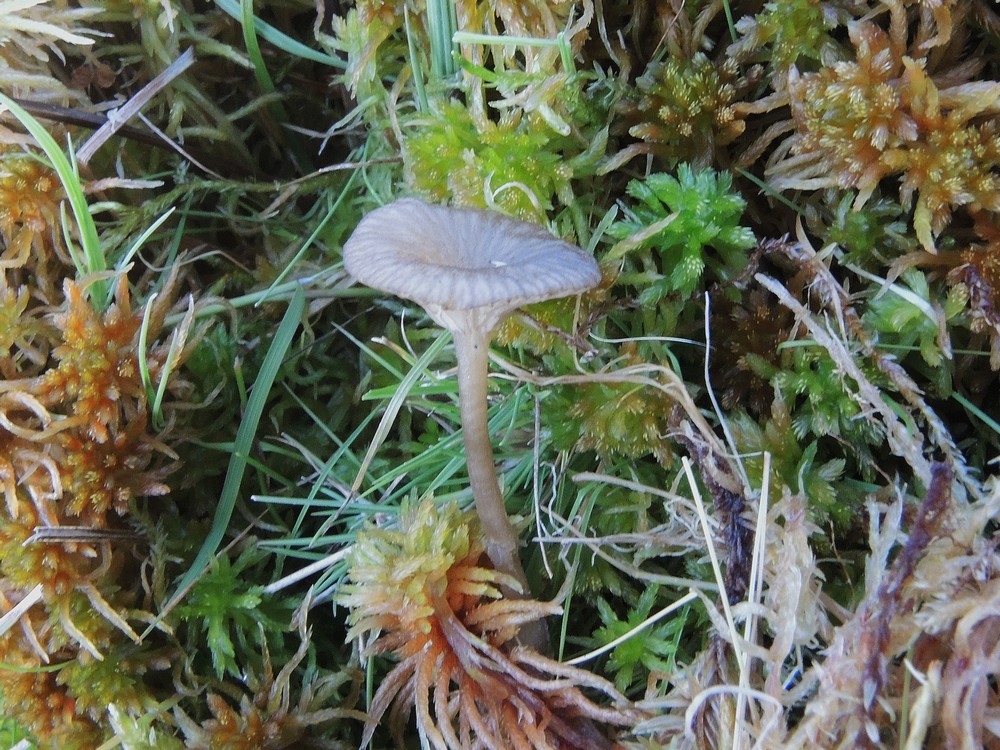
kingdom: Fungi
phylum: Basidiomycota
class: Agaricomycetes
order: Agaricales
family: Hygrophoraceae
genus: Arrhenia
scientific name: Arrhenia gerardiana
